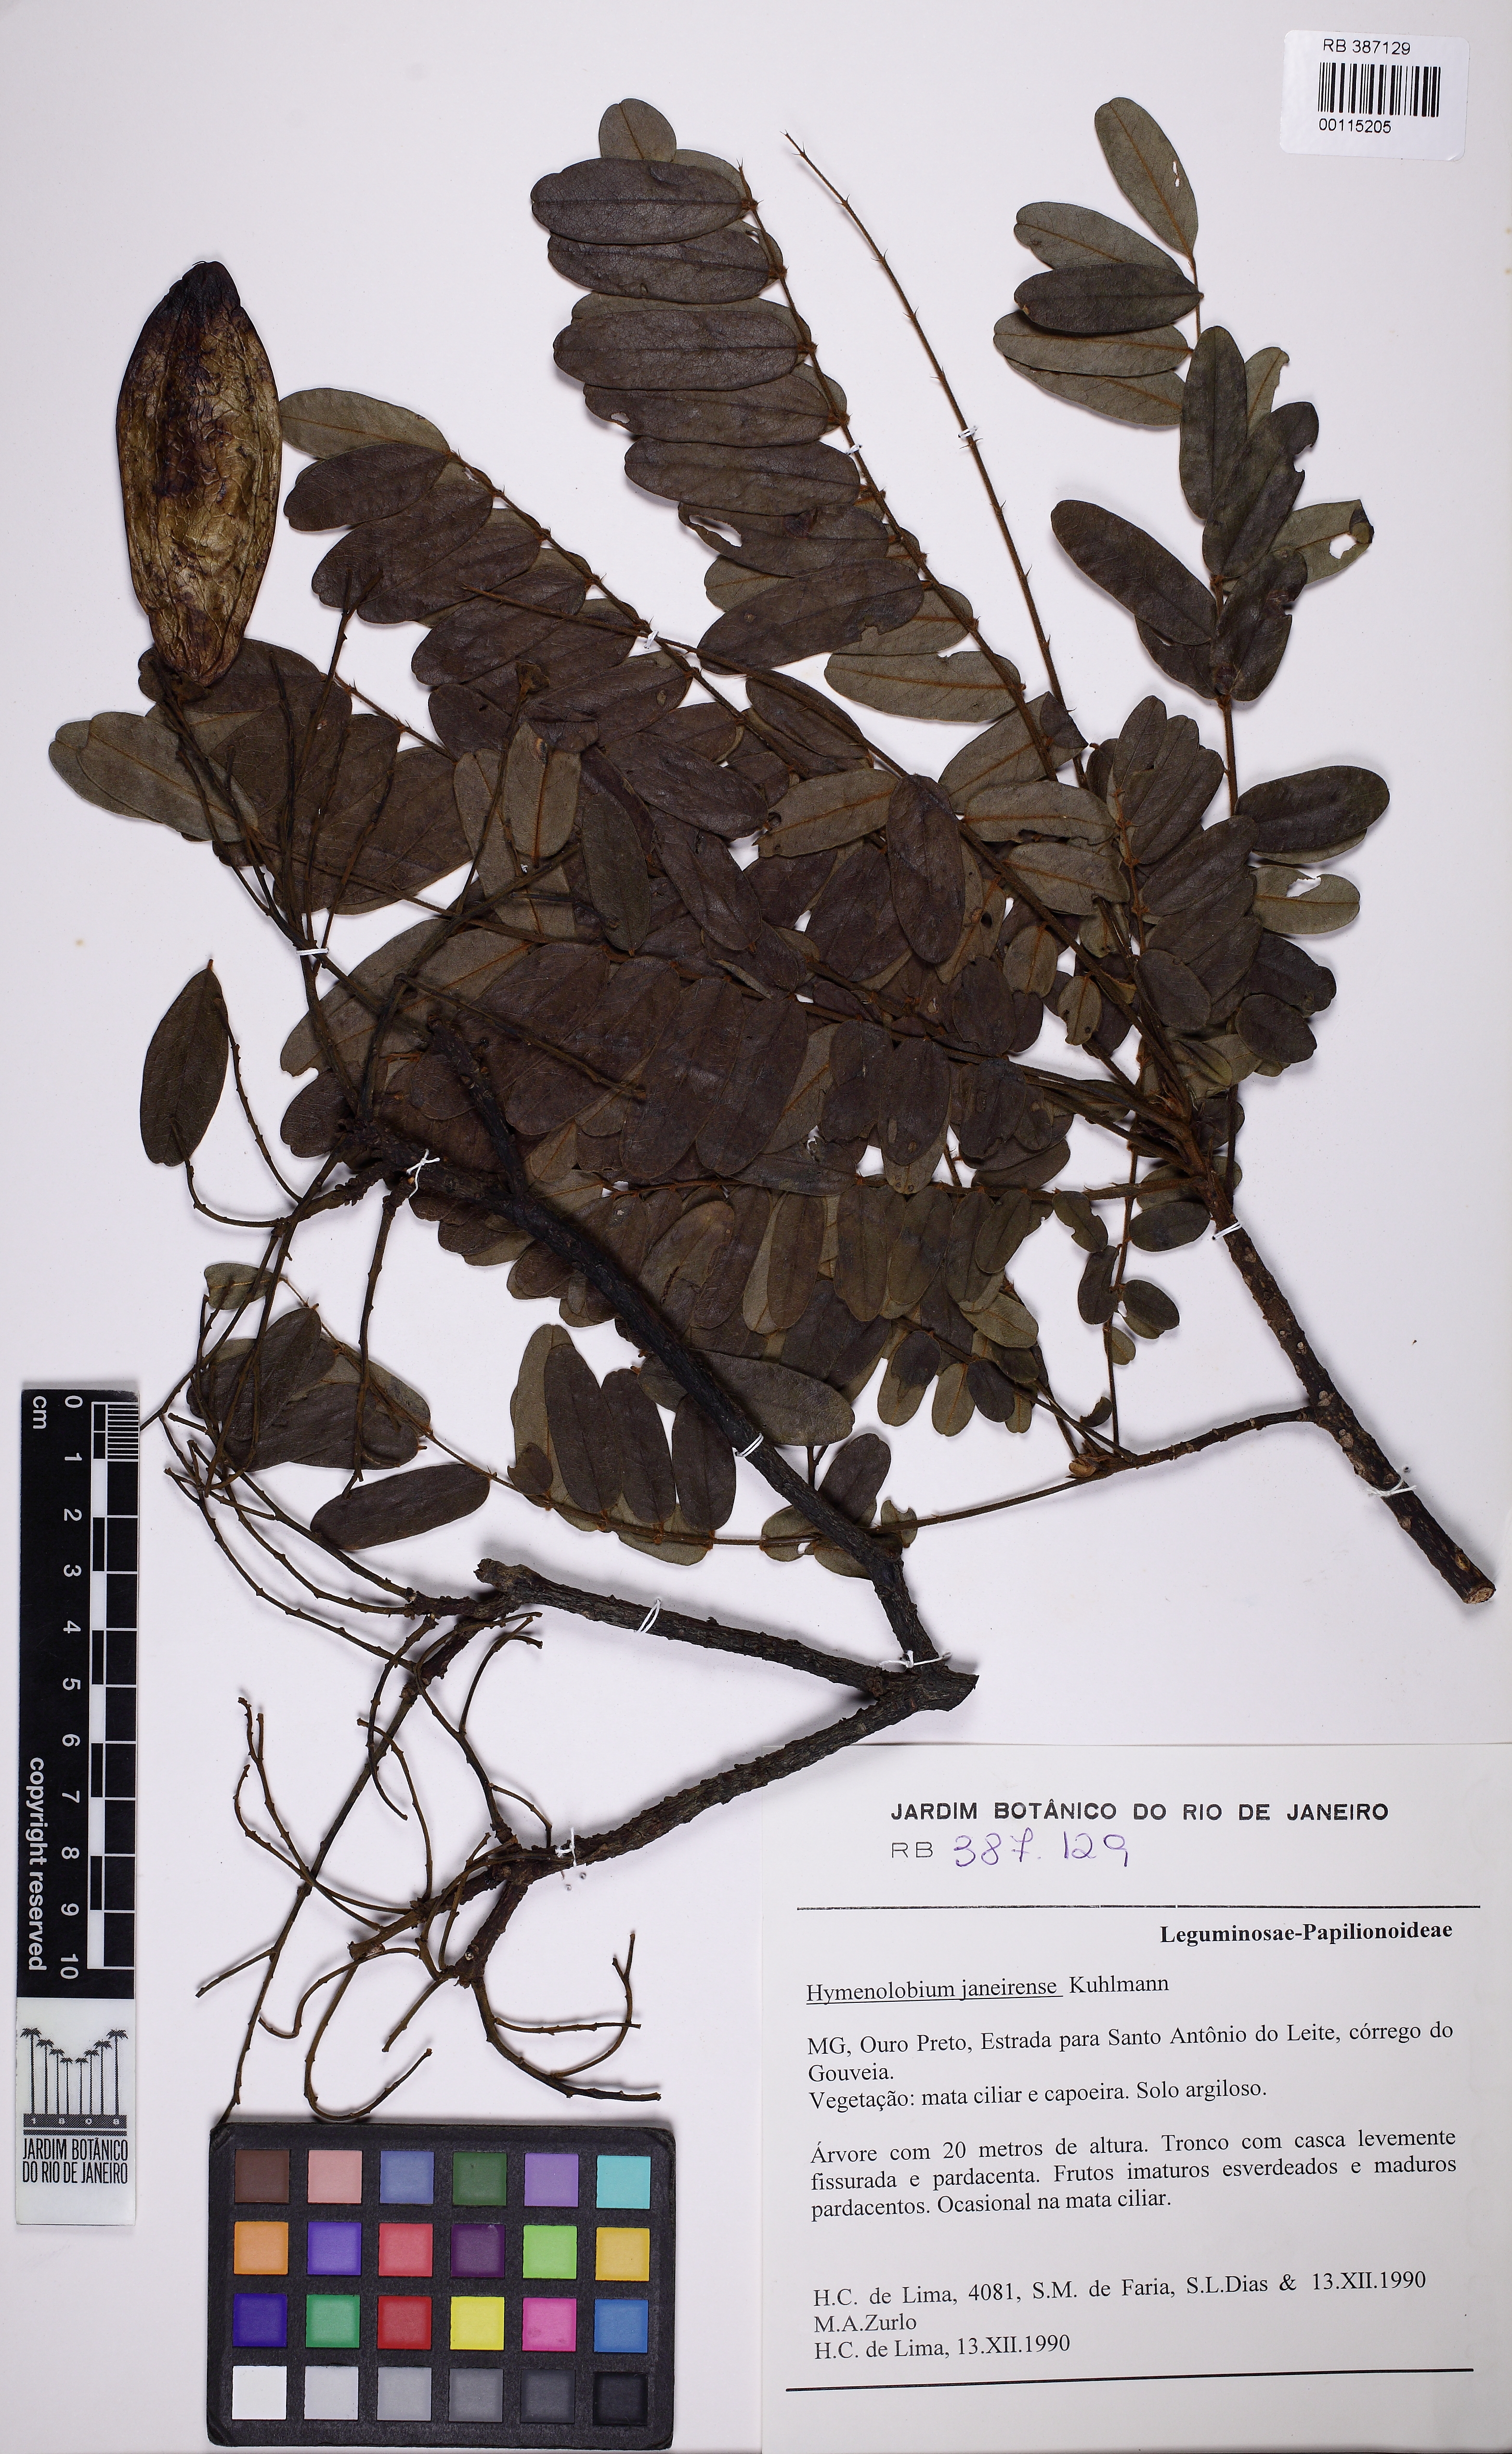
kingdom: Plantae
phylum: Tracheophyta
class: Magnoliopsida
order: Fabales
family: Fabaceae
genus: Hymenolobium
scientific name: Hymenolobium janeirense
